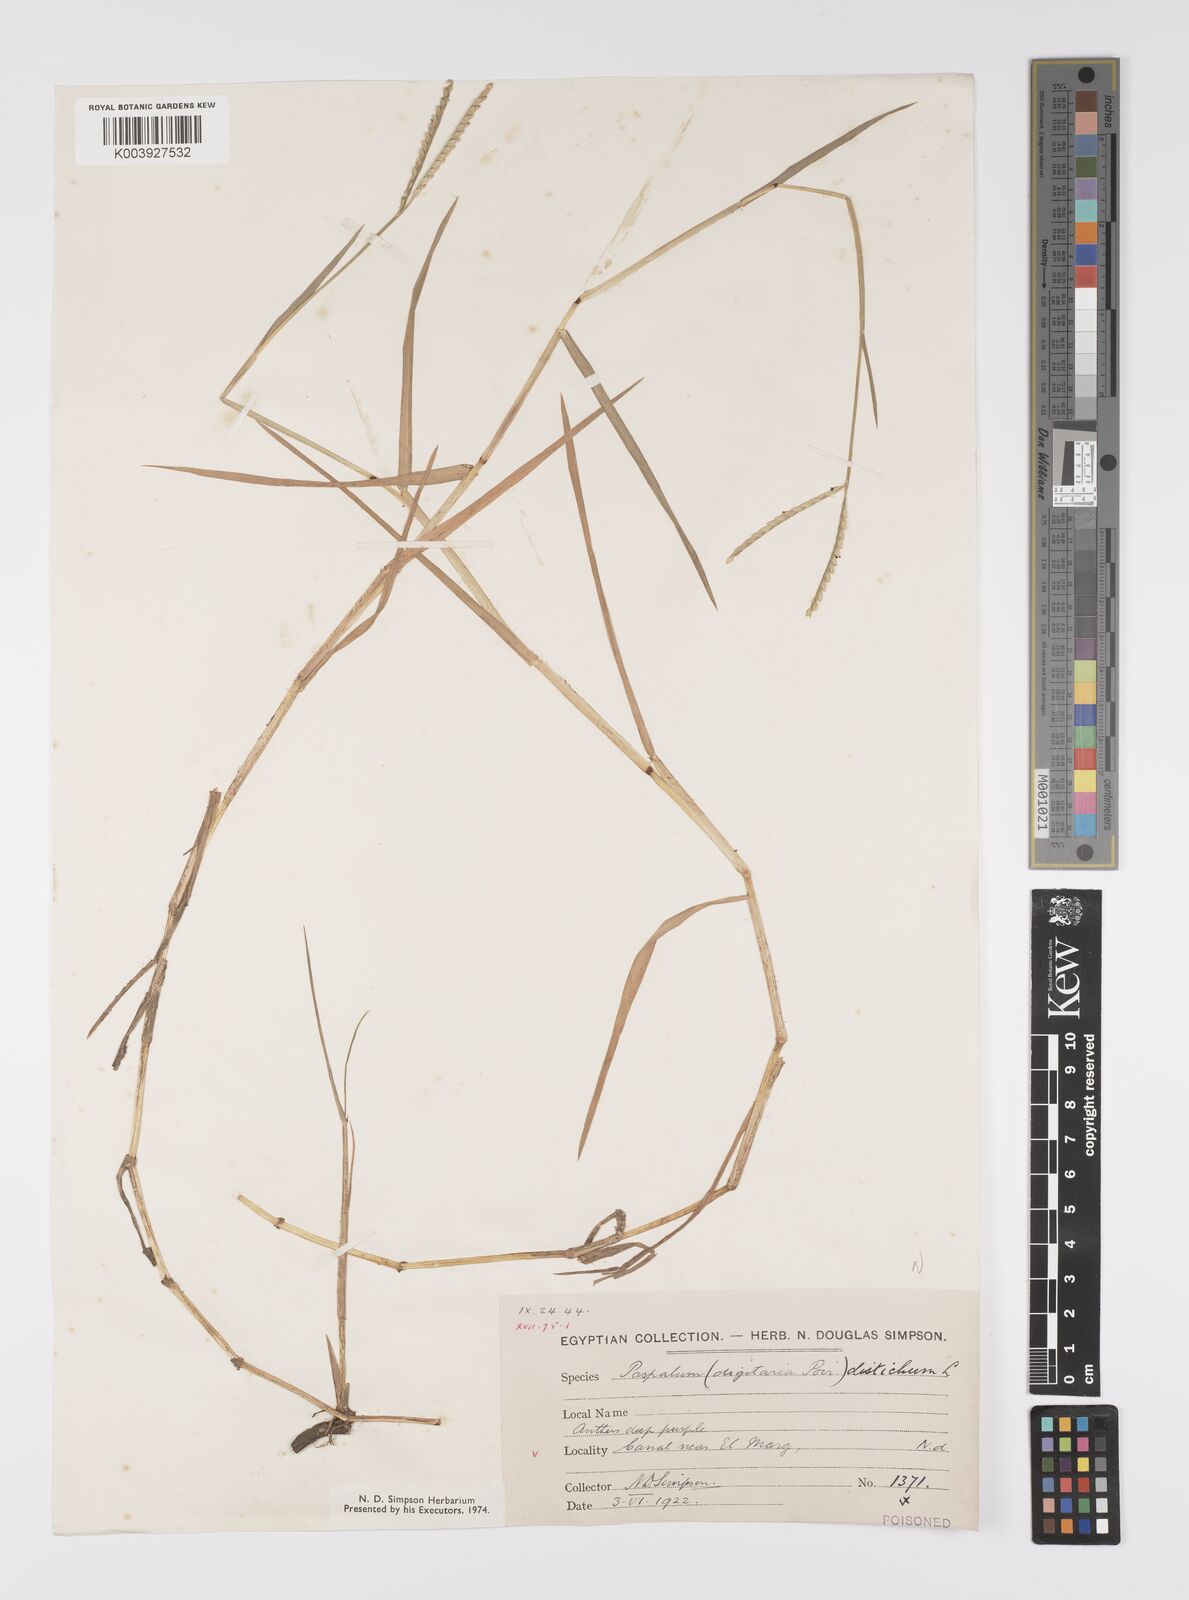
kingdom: Plantae
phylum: Tracheophyta
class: Liliopsida
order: Poales
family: Poaceae
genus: Paspalum
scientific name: Paspalum distichum
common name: Knotgrass
